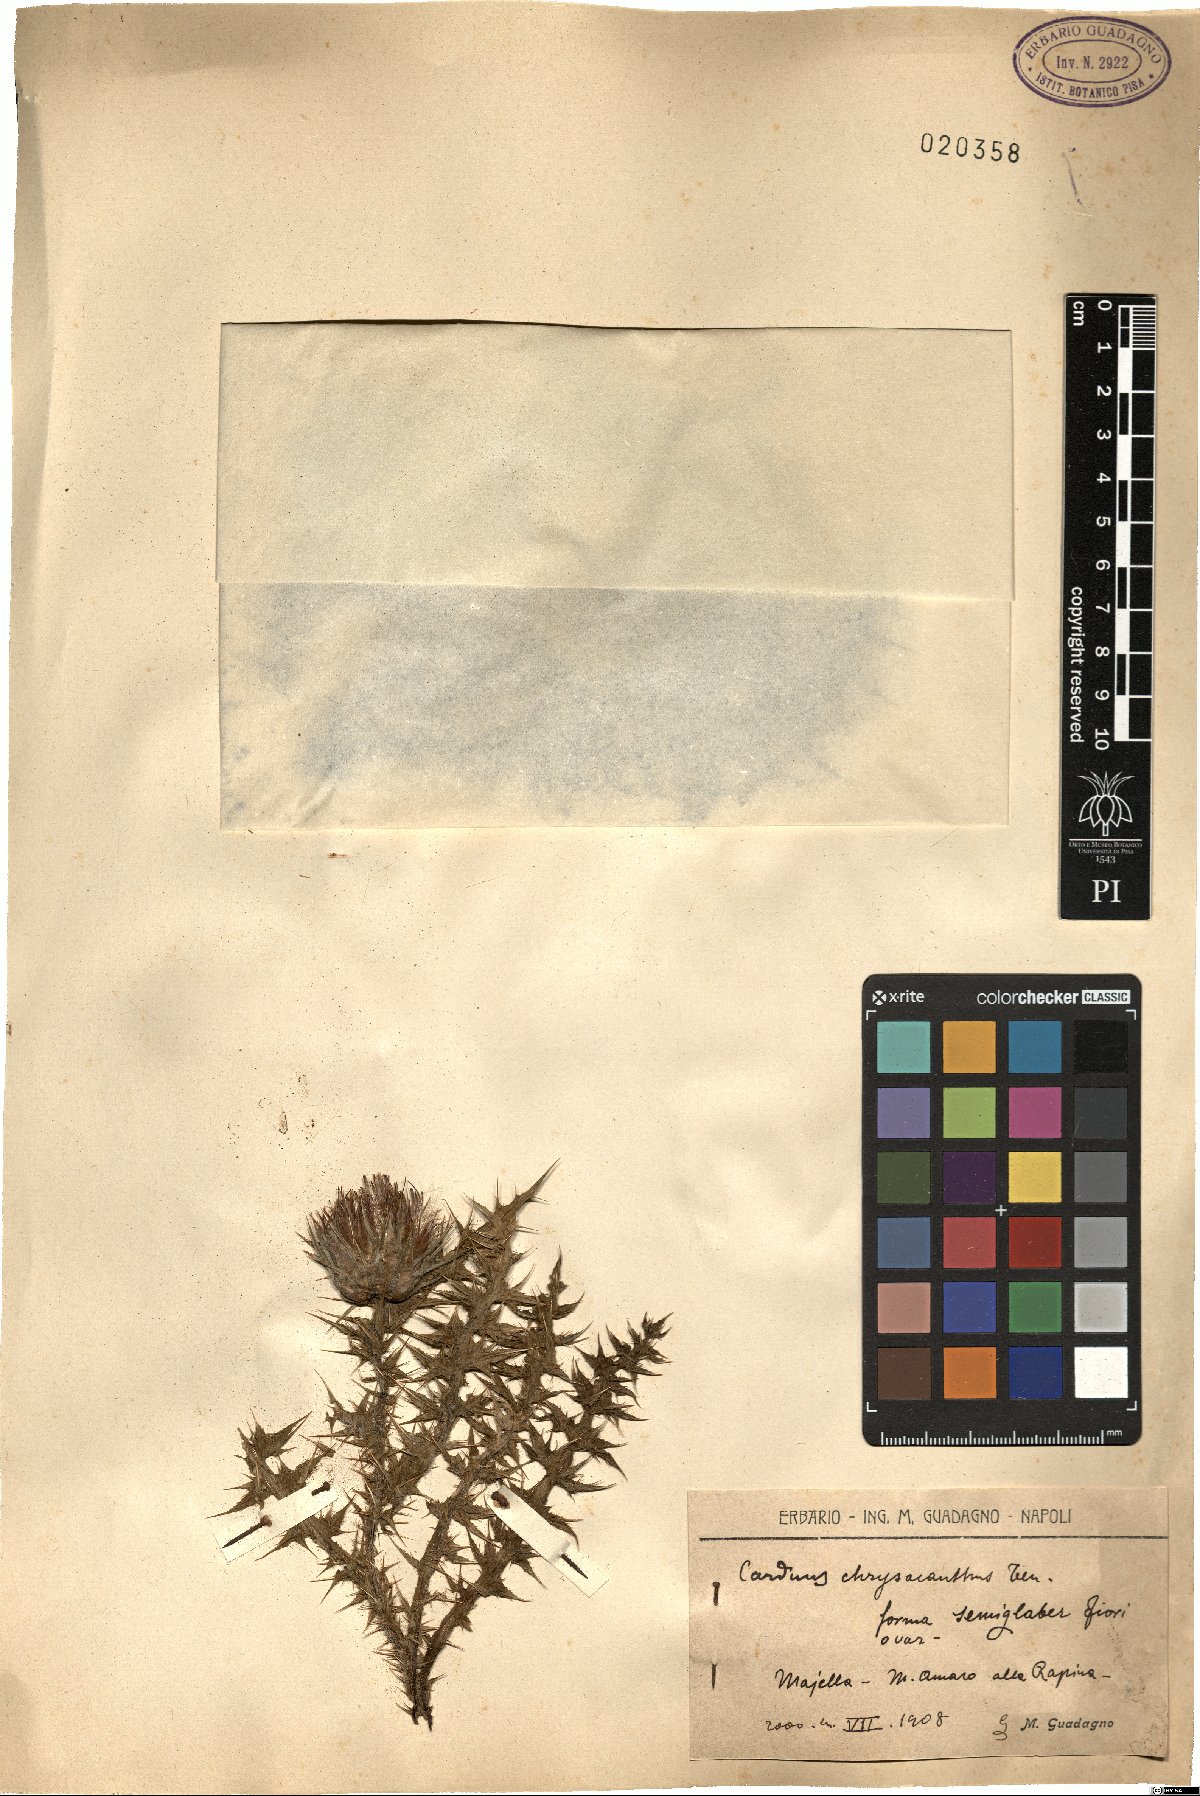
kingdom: Plantae
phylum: Tracheophyta
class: Magnoliopsida
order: Asterales
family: Asteraceae
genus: Carduus
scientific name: Carduus chrysacanthus
